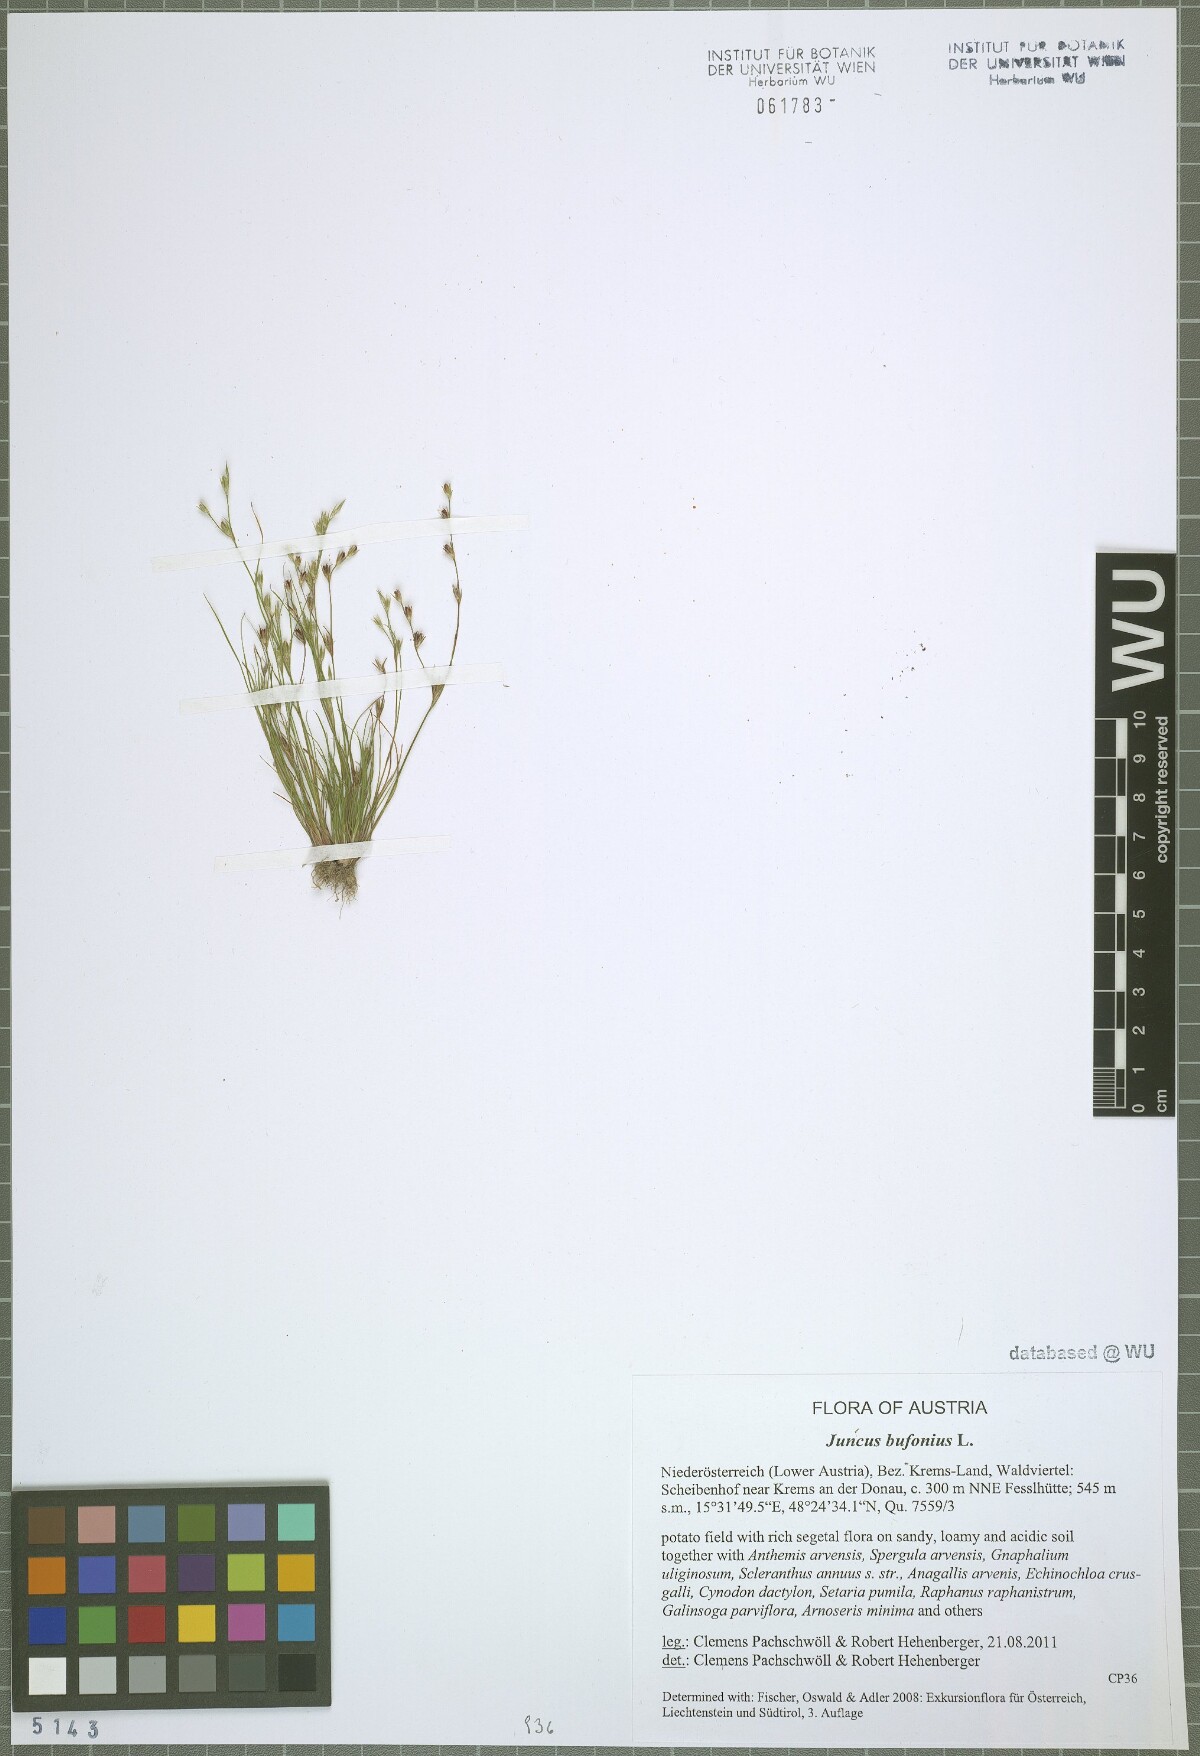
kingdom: Plantae
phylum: Tracheophyta
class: Liliopsida
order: Poales
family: Juncaceae
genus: Juncus
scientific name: Juncus bufonius
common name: Toad rush
